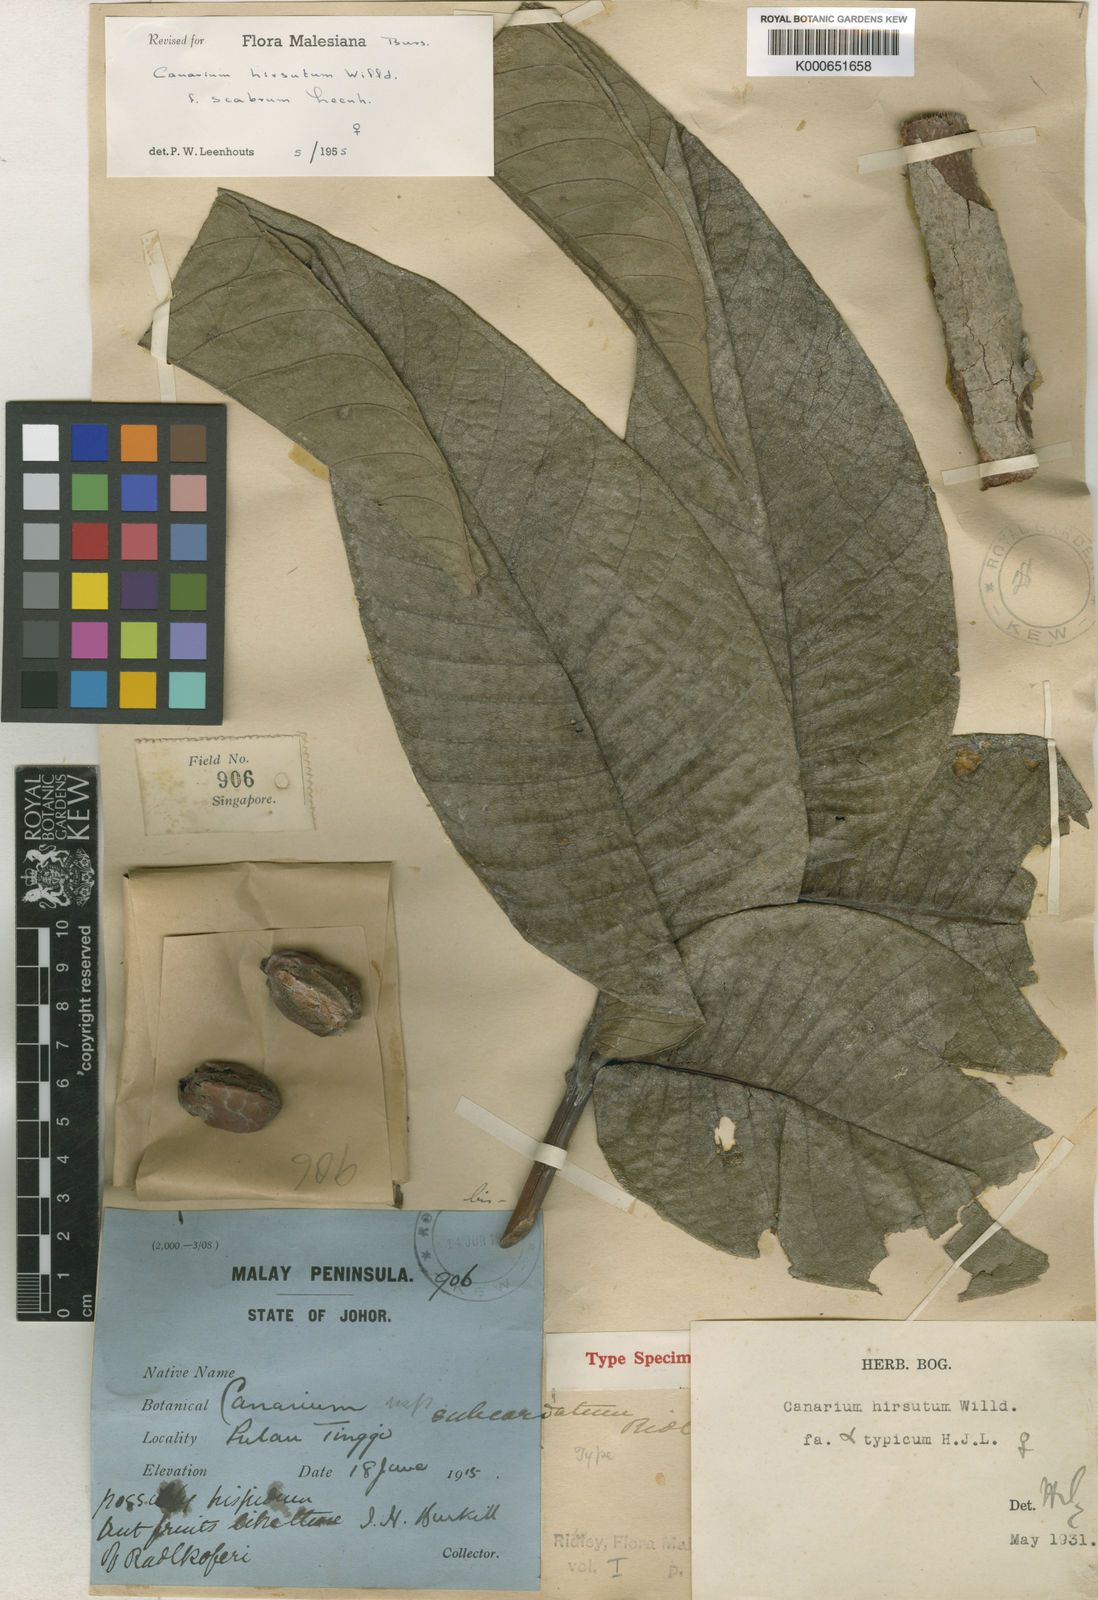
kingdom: Plantae
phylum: Tracheophyta
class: Magnoliopsida
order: Sapindales
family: Burseraceae
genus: Canarium
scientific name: Canarium hirsutum
